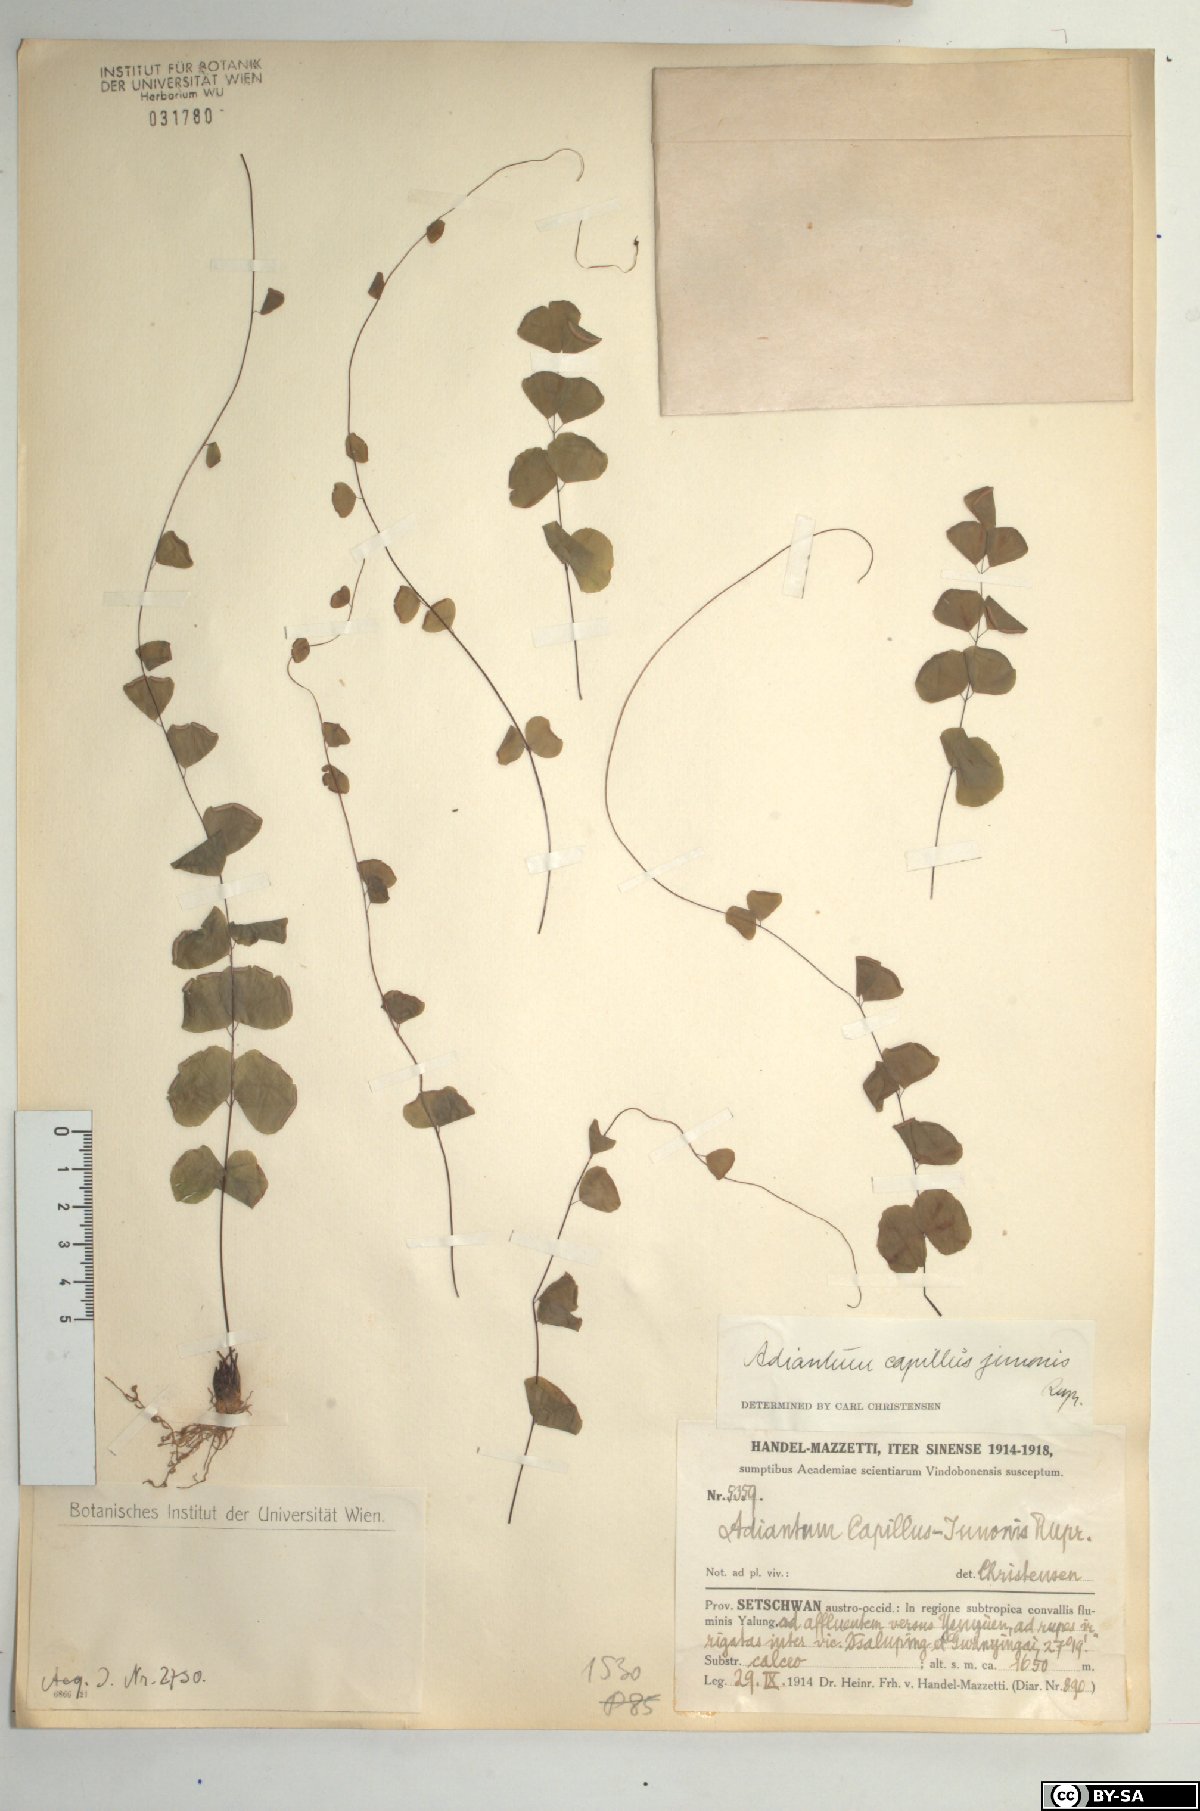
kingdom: Plantae
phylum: Tracheophyta
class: Polypodiopsida
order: Polypodiales
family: Pteridaceae
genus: Adiantum
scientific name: Adiantum capillus-junonis
